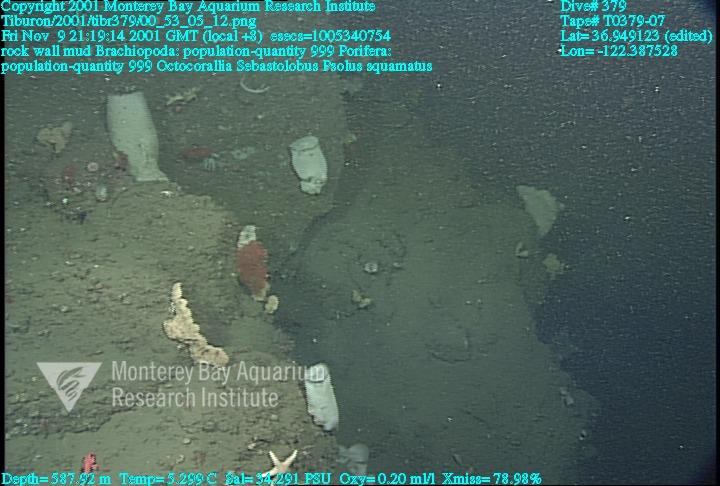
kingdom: Animalia
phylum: Porifera
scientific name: Porifera
